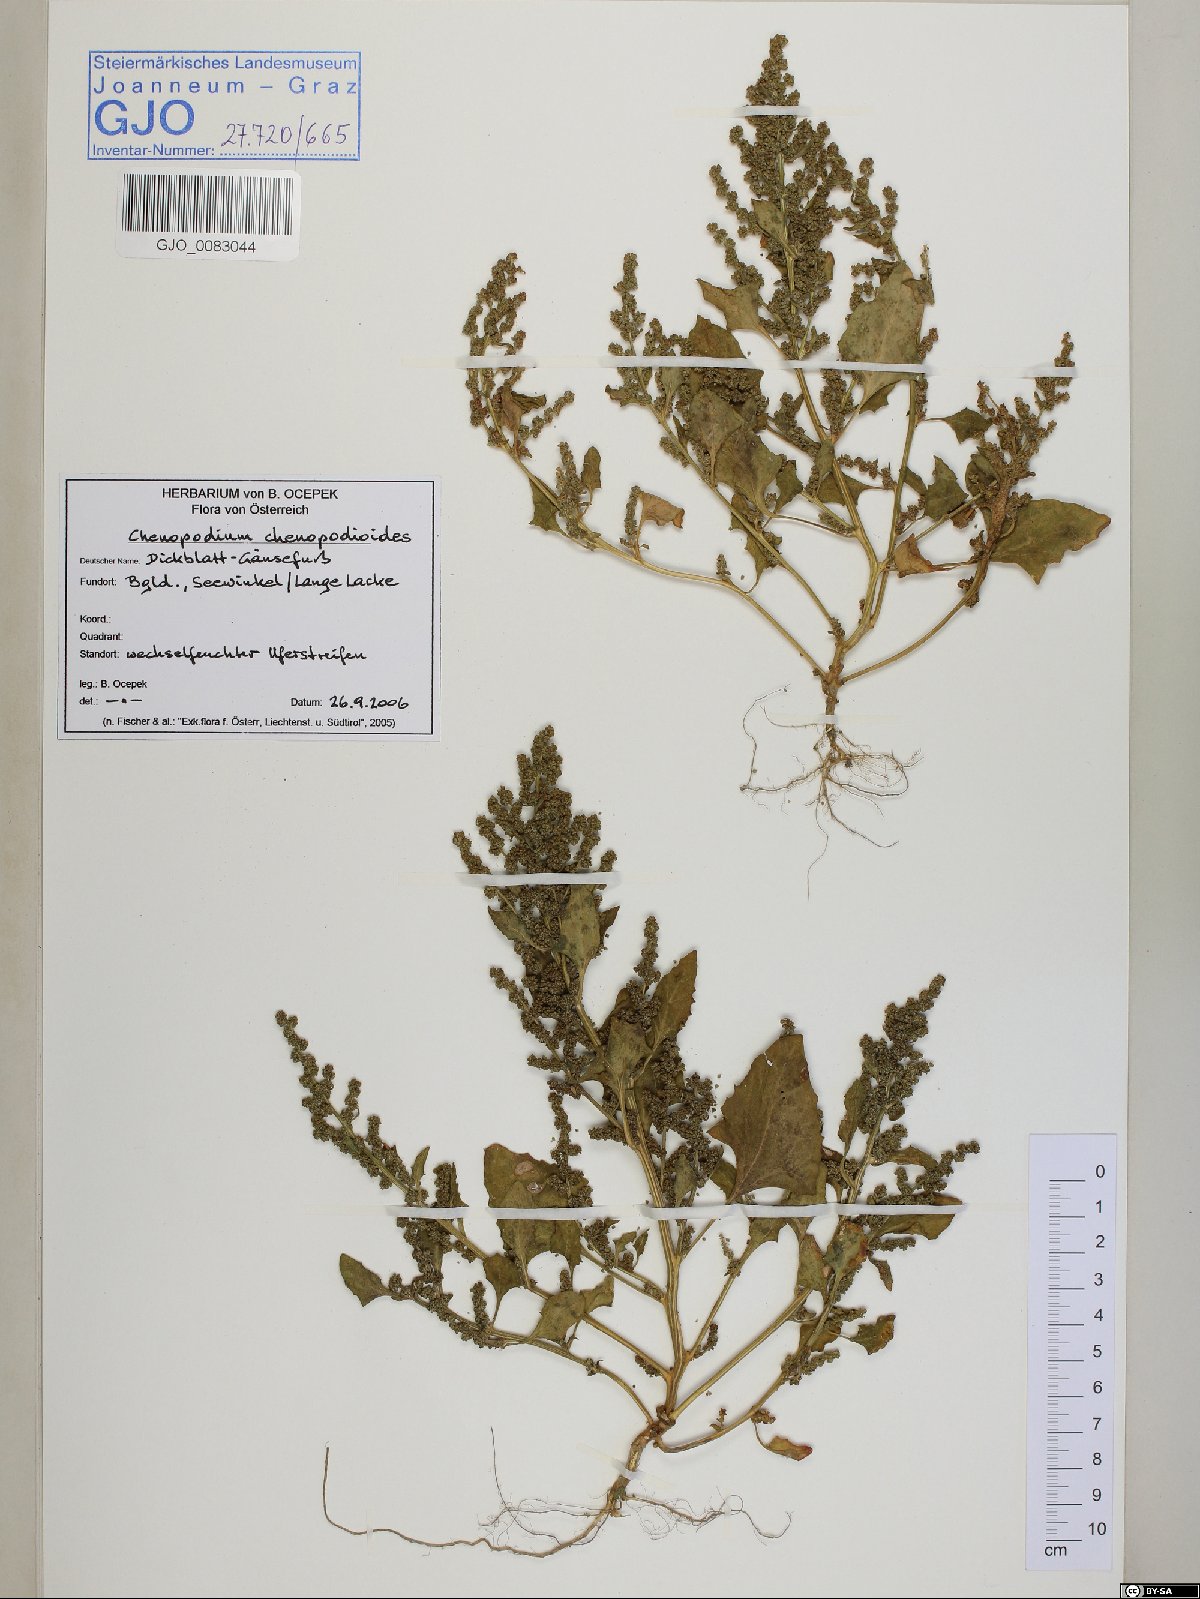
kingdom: Plantae
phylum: Tracheophyta
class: Magnoliopsida
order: Caryophyllales
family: Amaranthaceae
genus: Oxybasis
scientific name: Oxybasis chenopodioides
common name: Saltmarsh goosefoot
